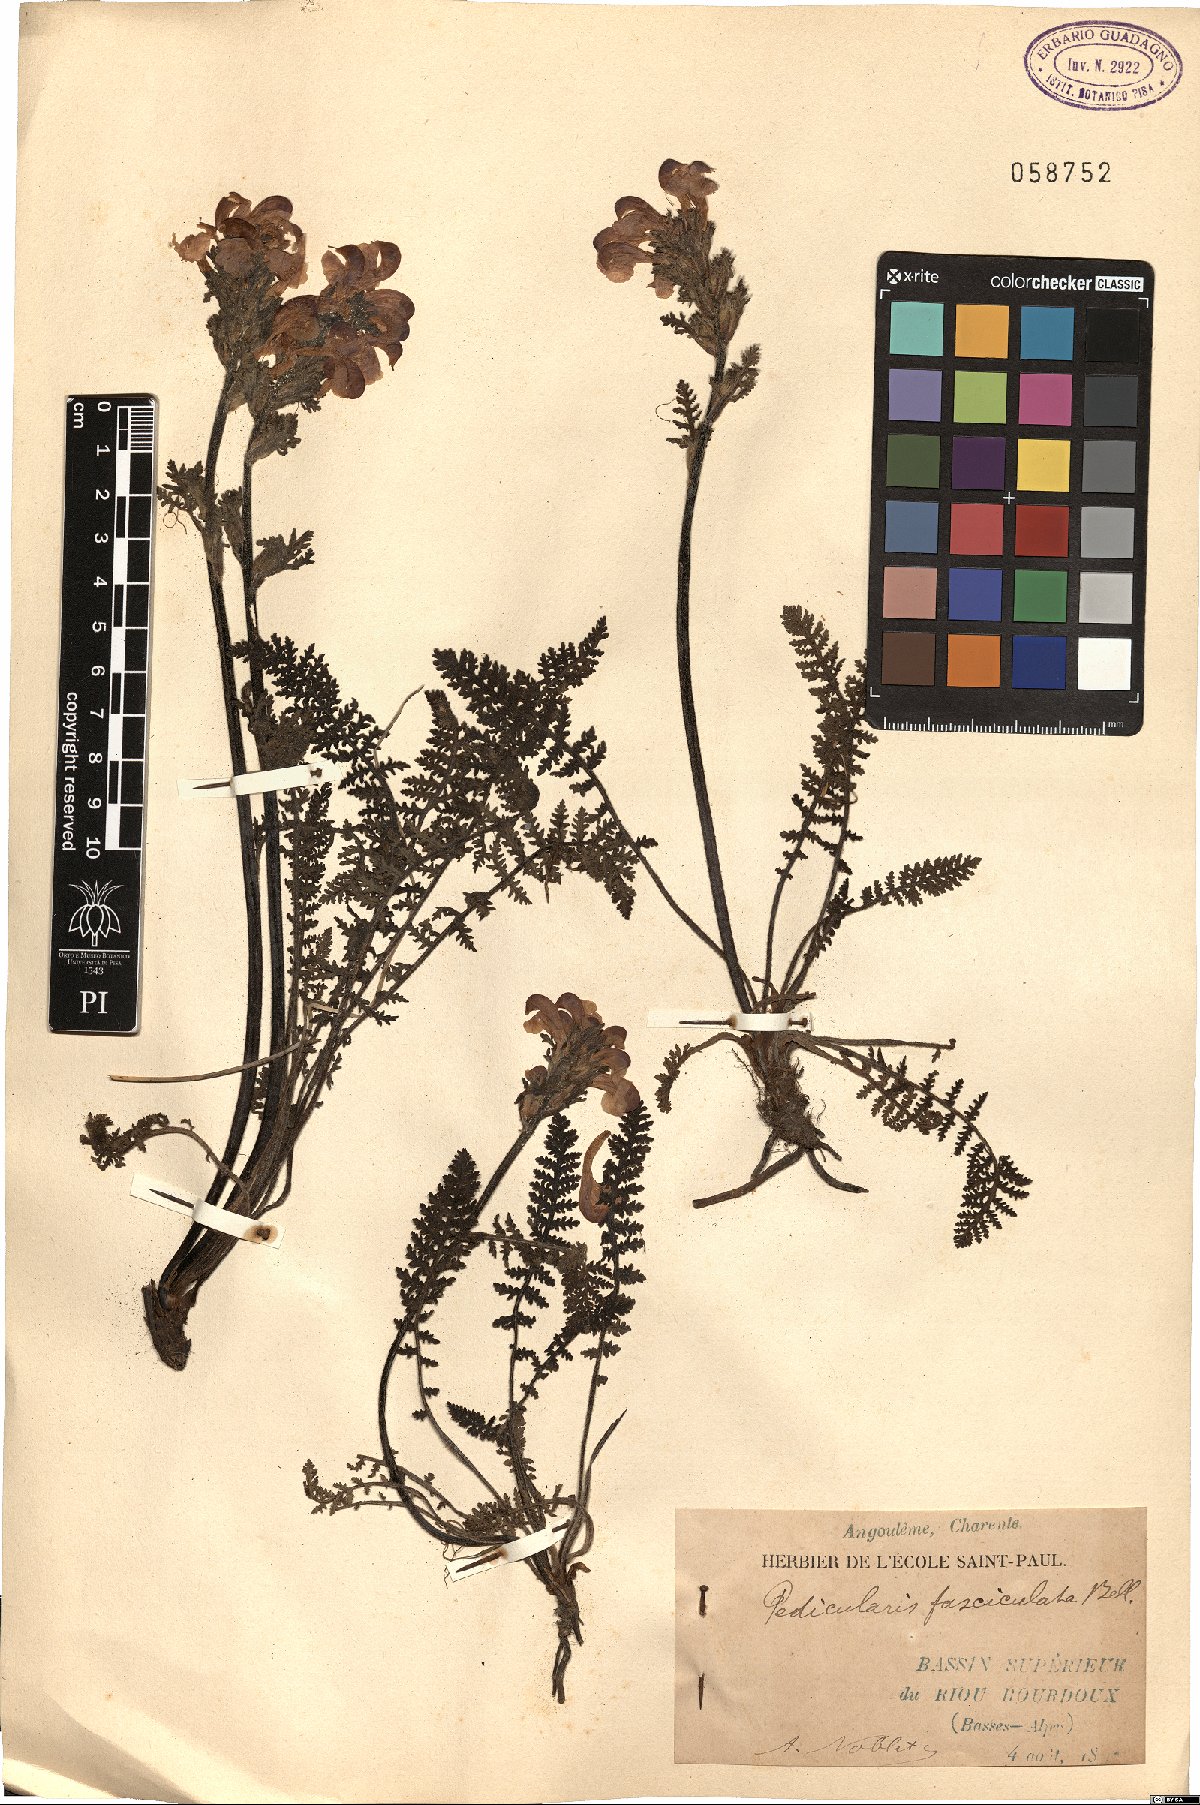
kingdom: Plantae
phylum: Tracheophyta
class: Magnoliopsida
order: Lamiales
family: Orobanchaceae
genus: Pedicularis
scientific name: Pedicularis gyroflexa
